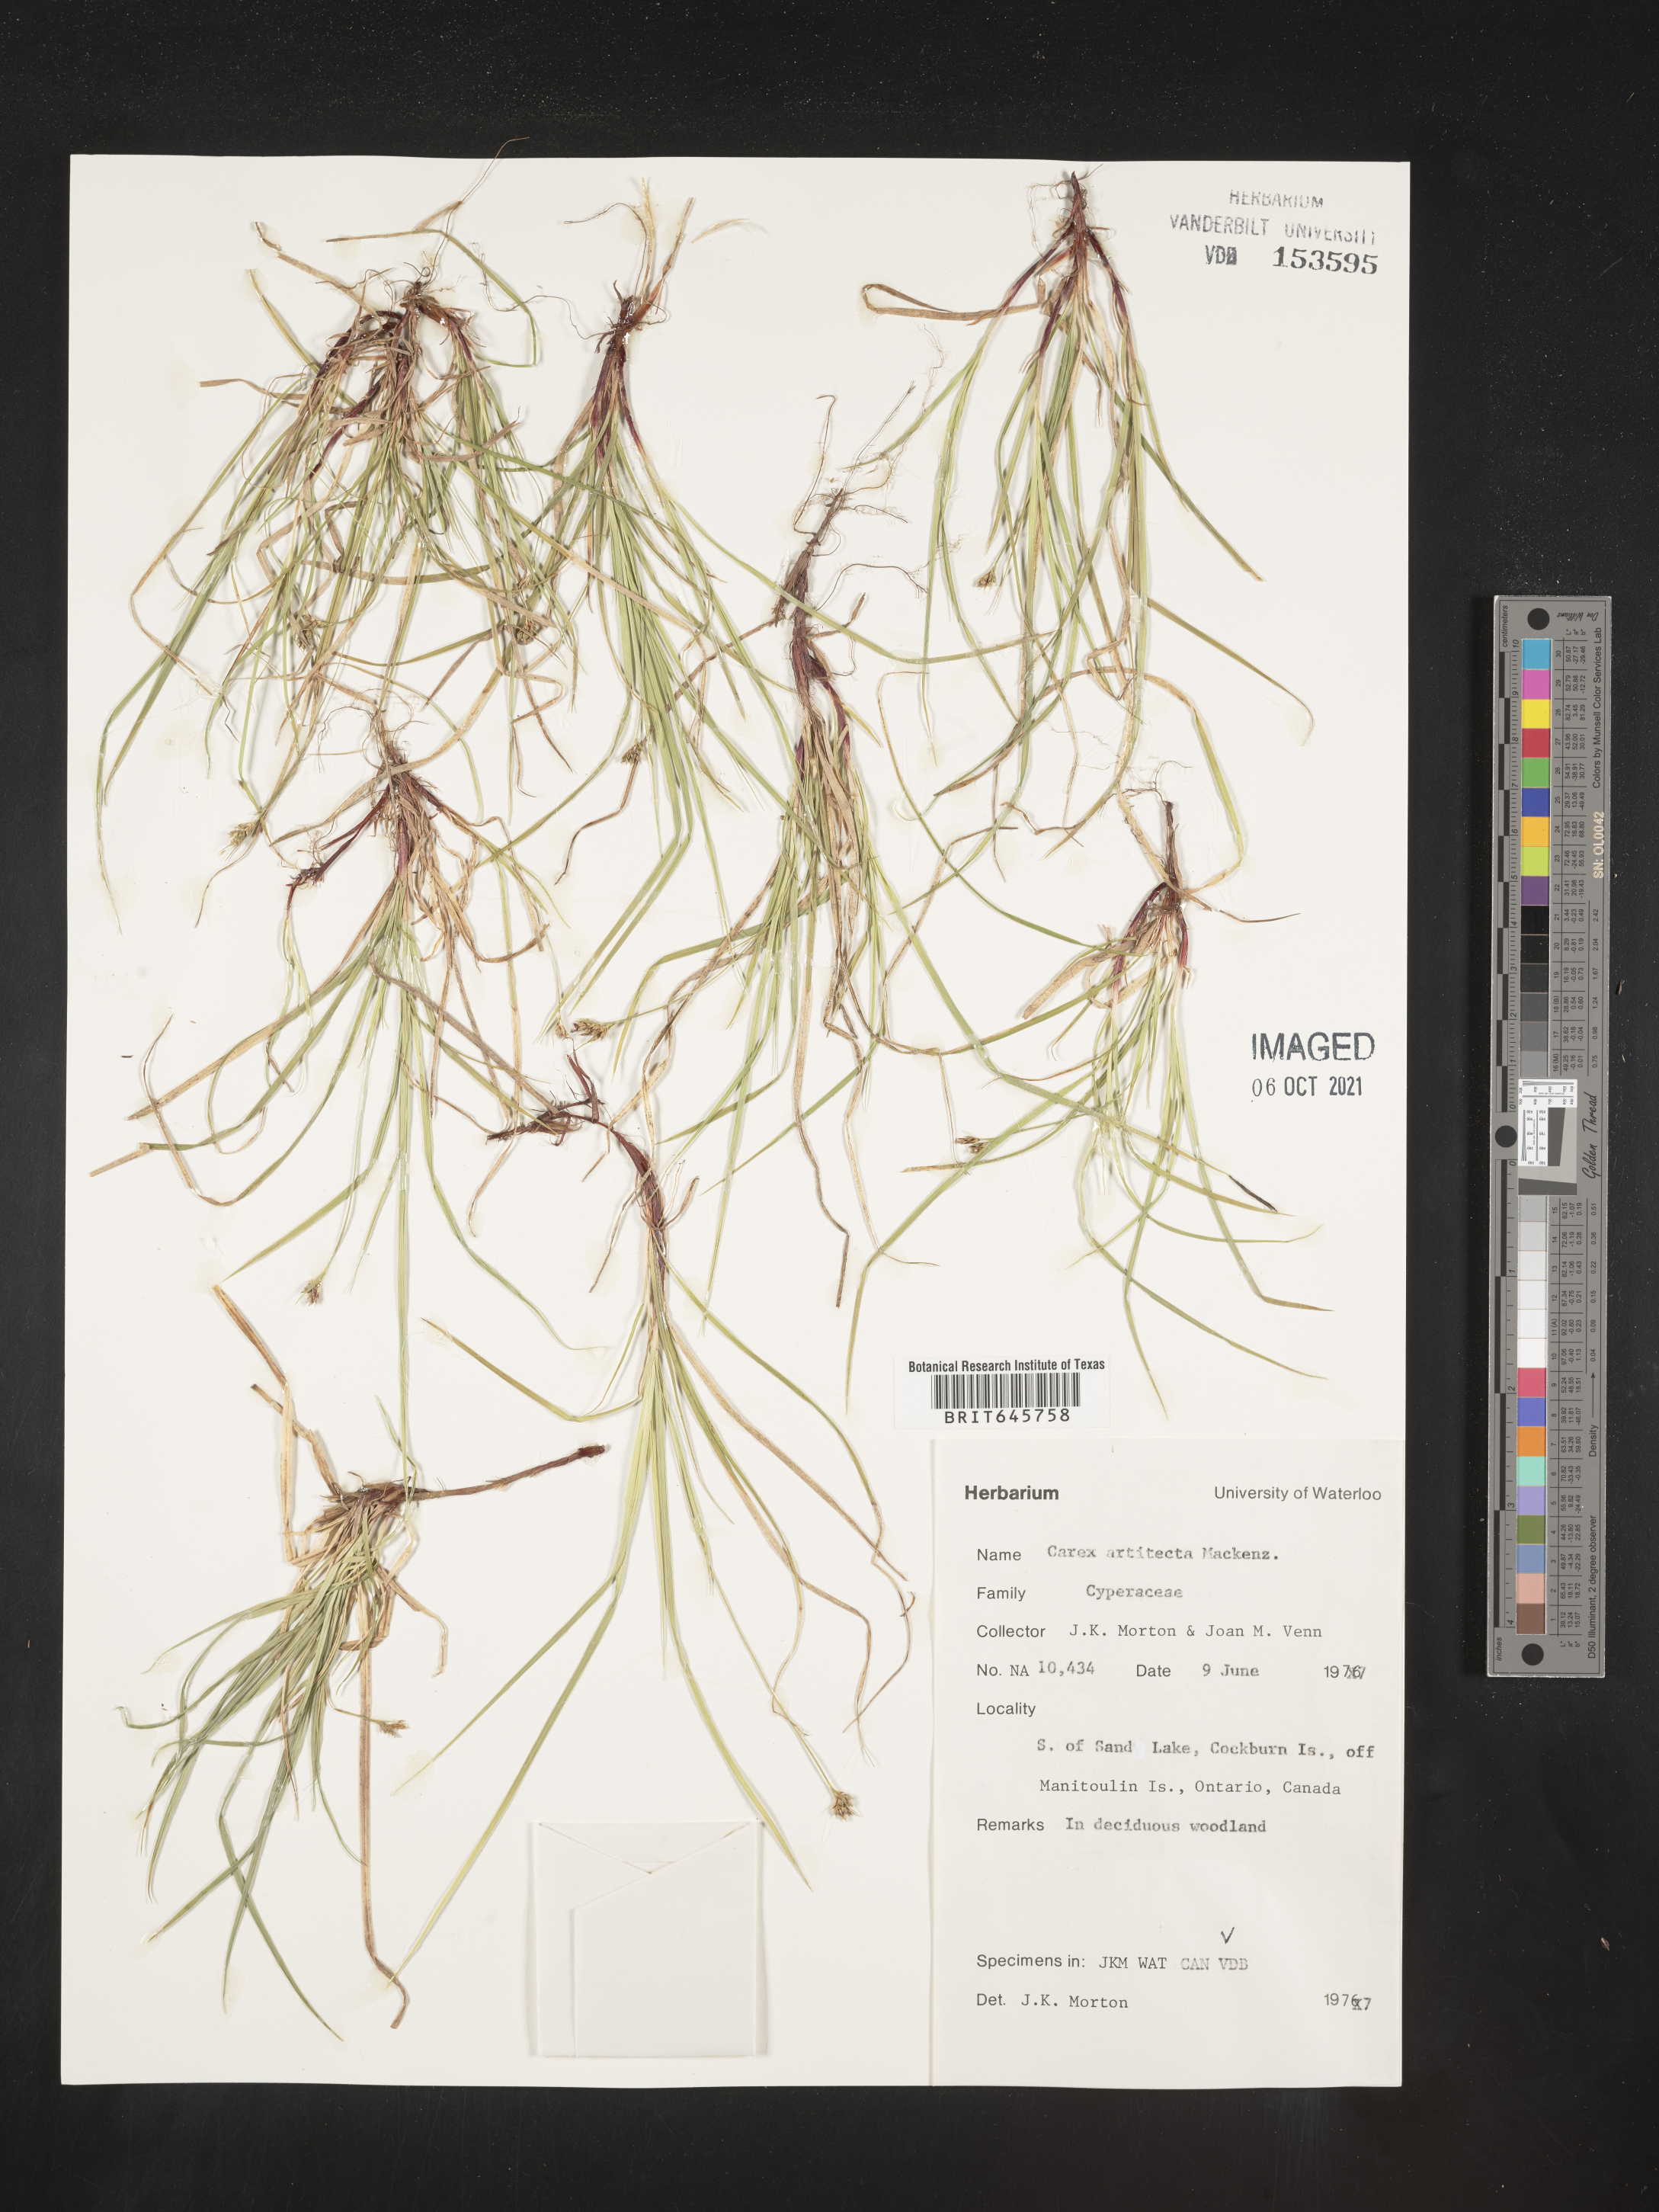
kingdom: Plantae
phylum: Tracheophyta
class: Liliopsida
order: Poales
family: Cyperaceae
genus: Carex
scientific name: Carex albicans
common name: Bellow-beaked sedge
